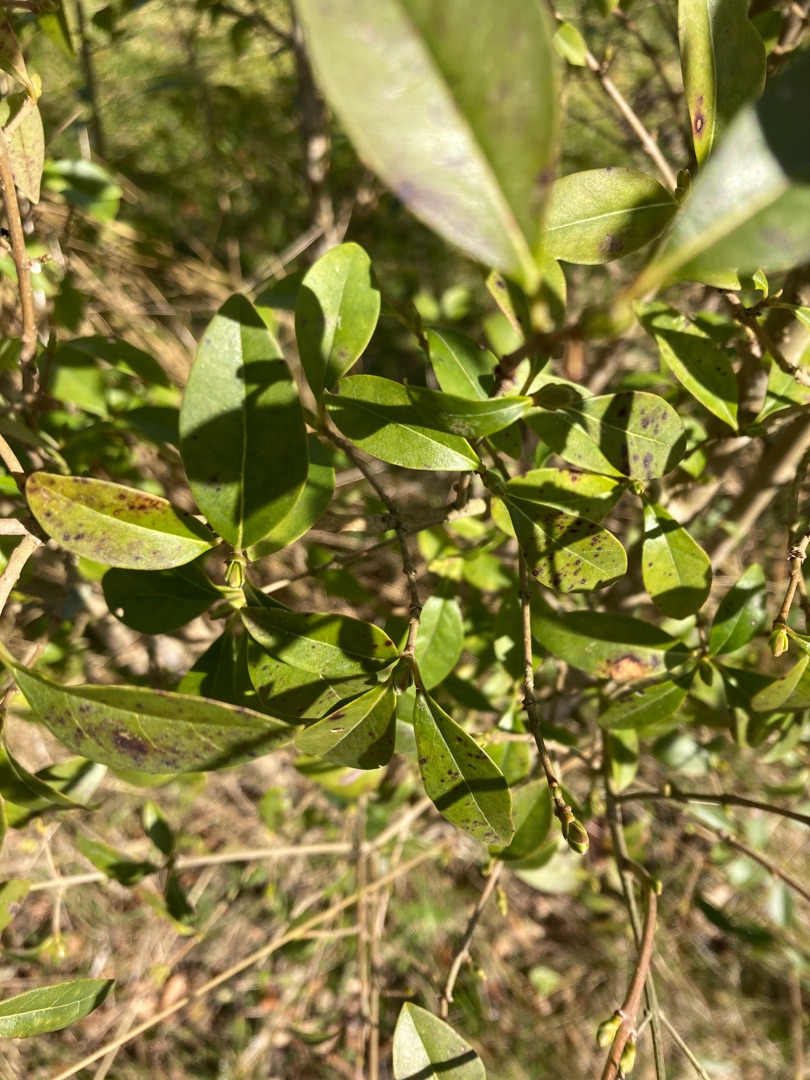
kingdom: Plantae
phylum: Tracheophyta
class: Magnoliopsida
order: Lamiales
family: Oleaceae
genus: Ligustrum
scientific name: Ligustrum vulgare
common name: Liguster
